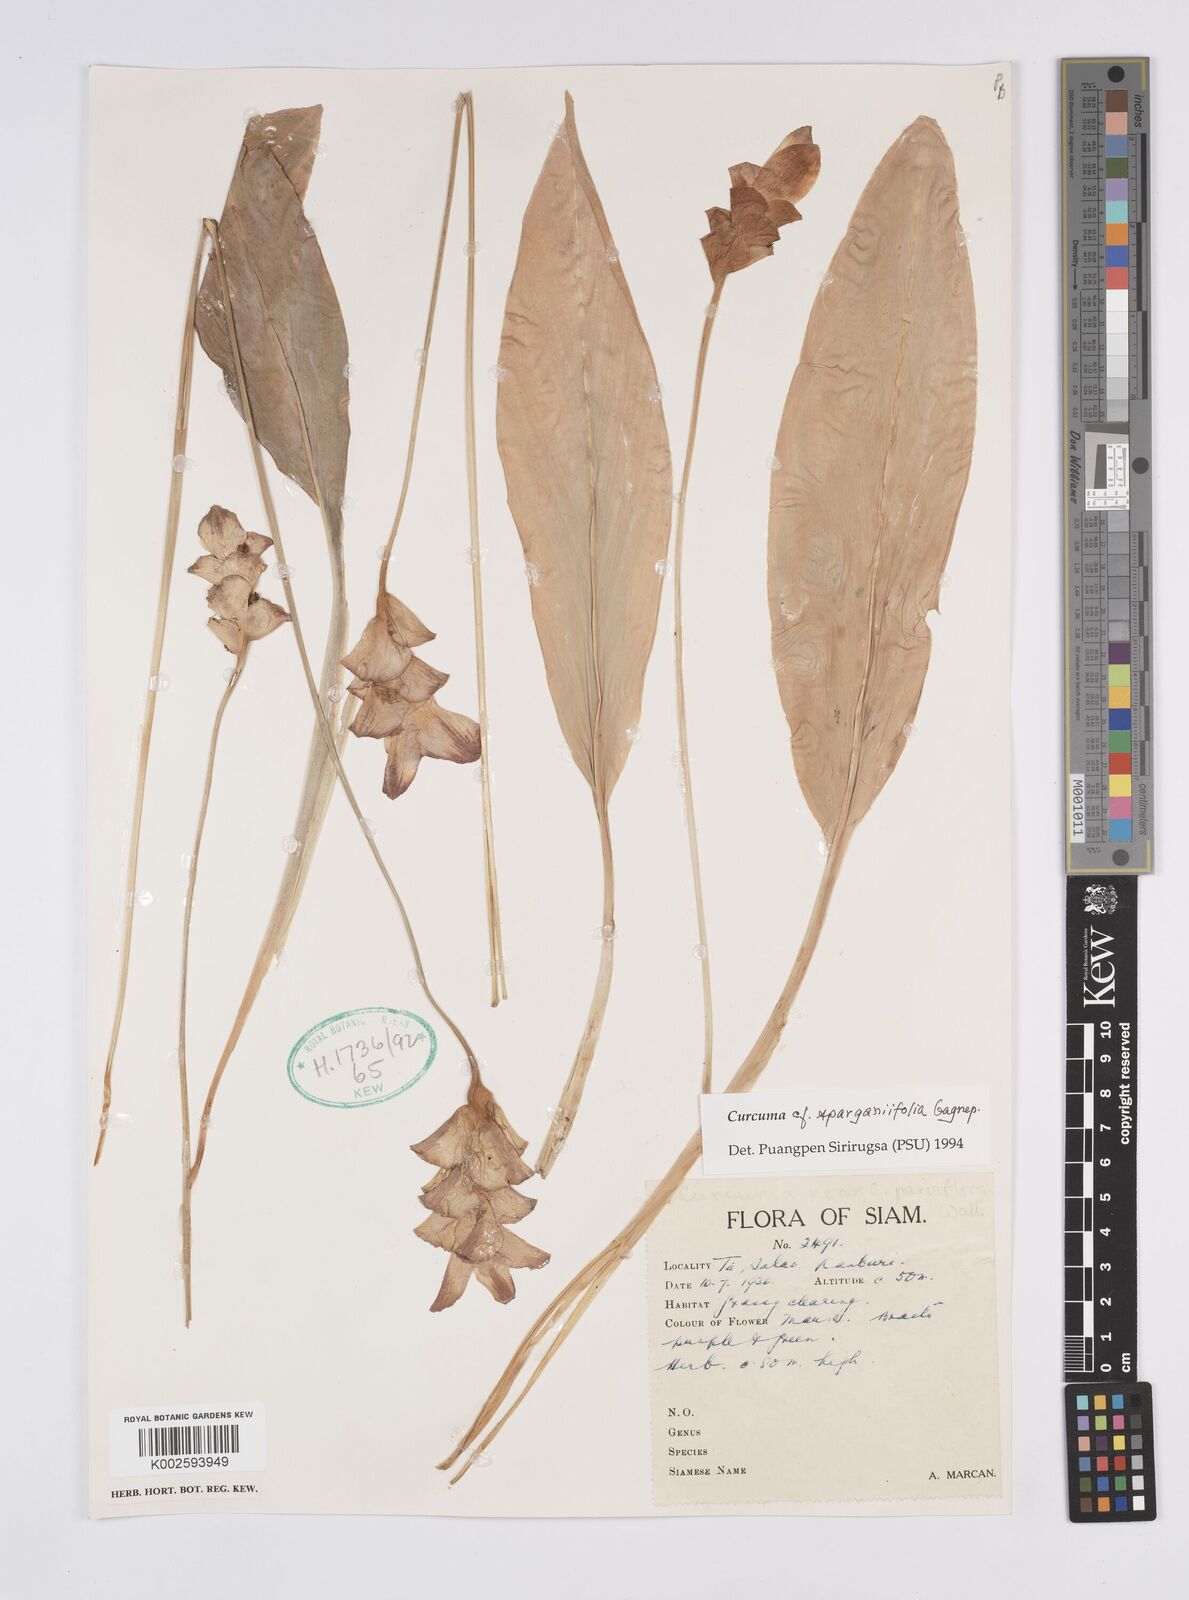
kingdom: Plantae
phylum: Tracheophyta
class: Liliopsida
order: Zingiberales
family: Zingiberaceae
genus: Curcuma
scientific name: Curcuma sparganiifolia
